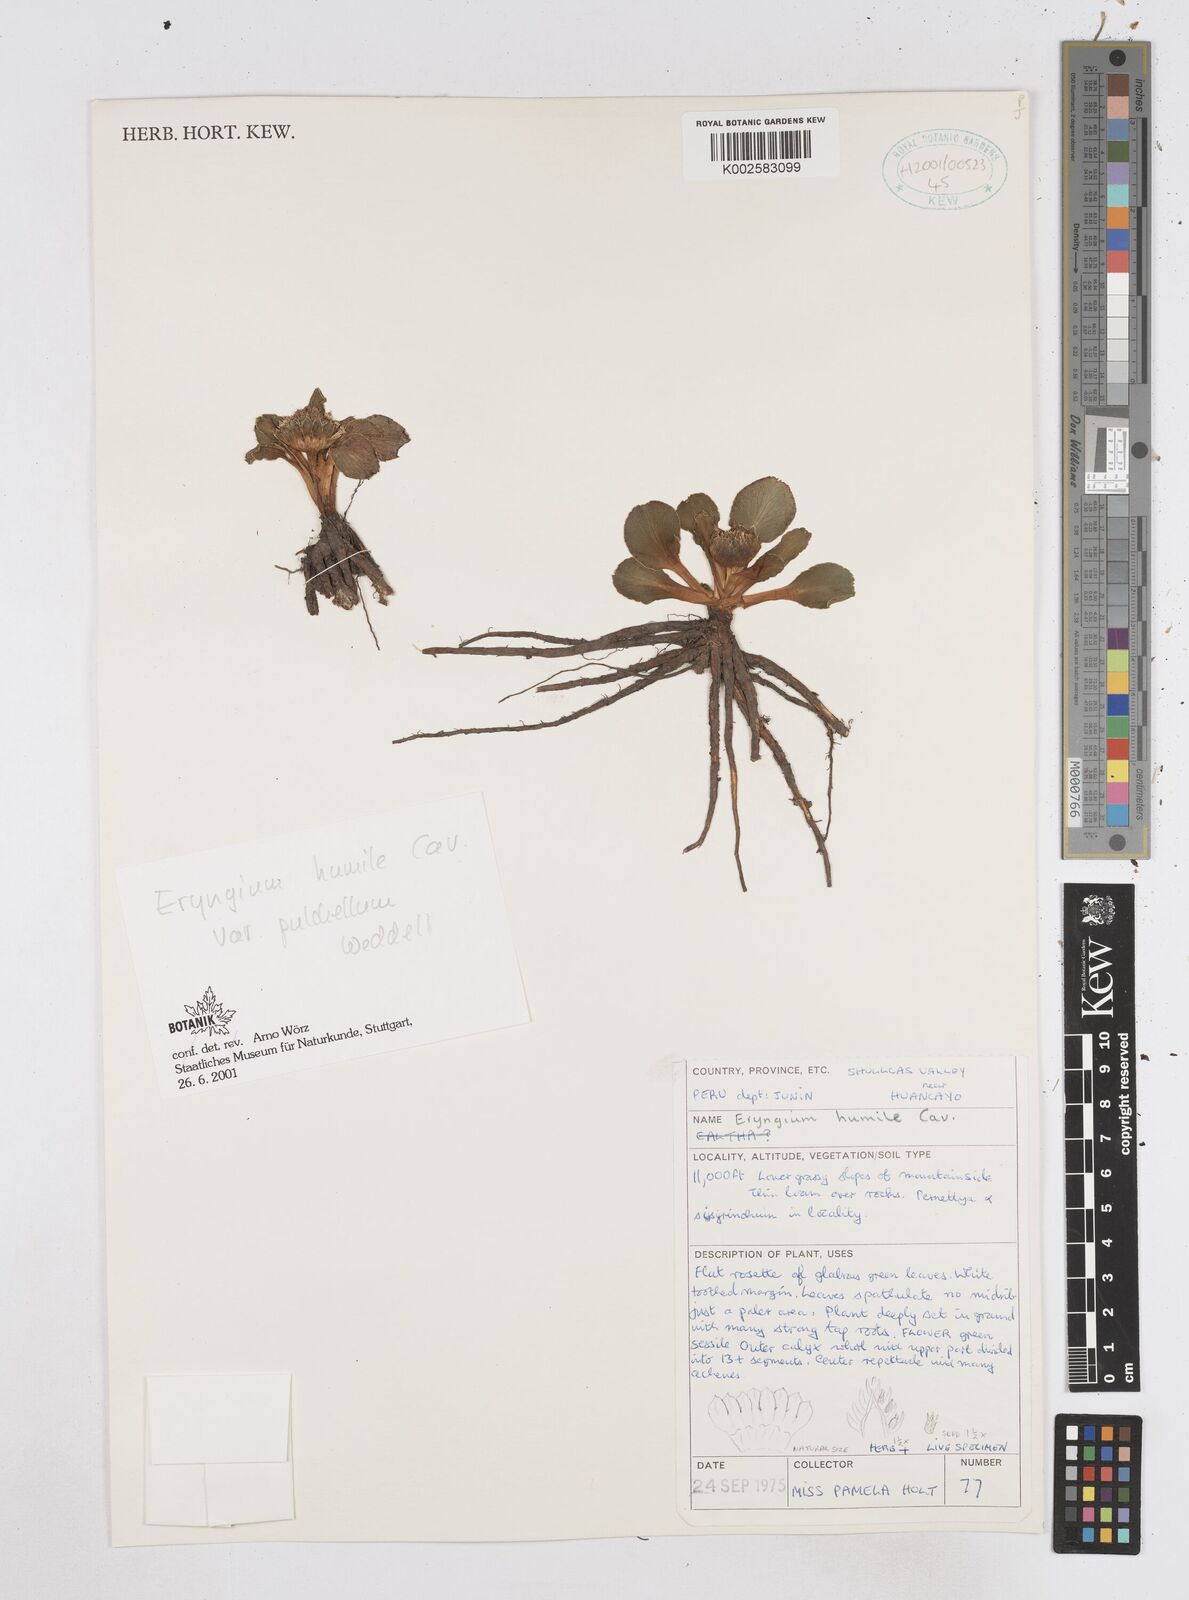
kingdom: Plantae
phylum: Tracheophyta
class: Magnoliopsida
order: Apiales
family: Apiaceae
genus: Eryngium
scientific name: Eryngium humile
